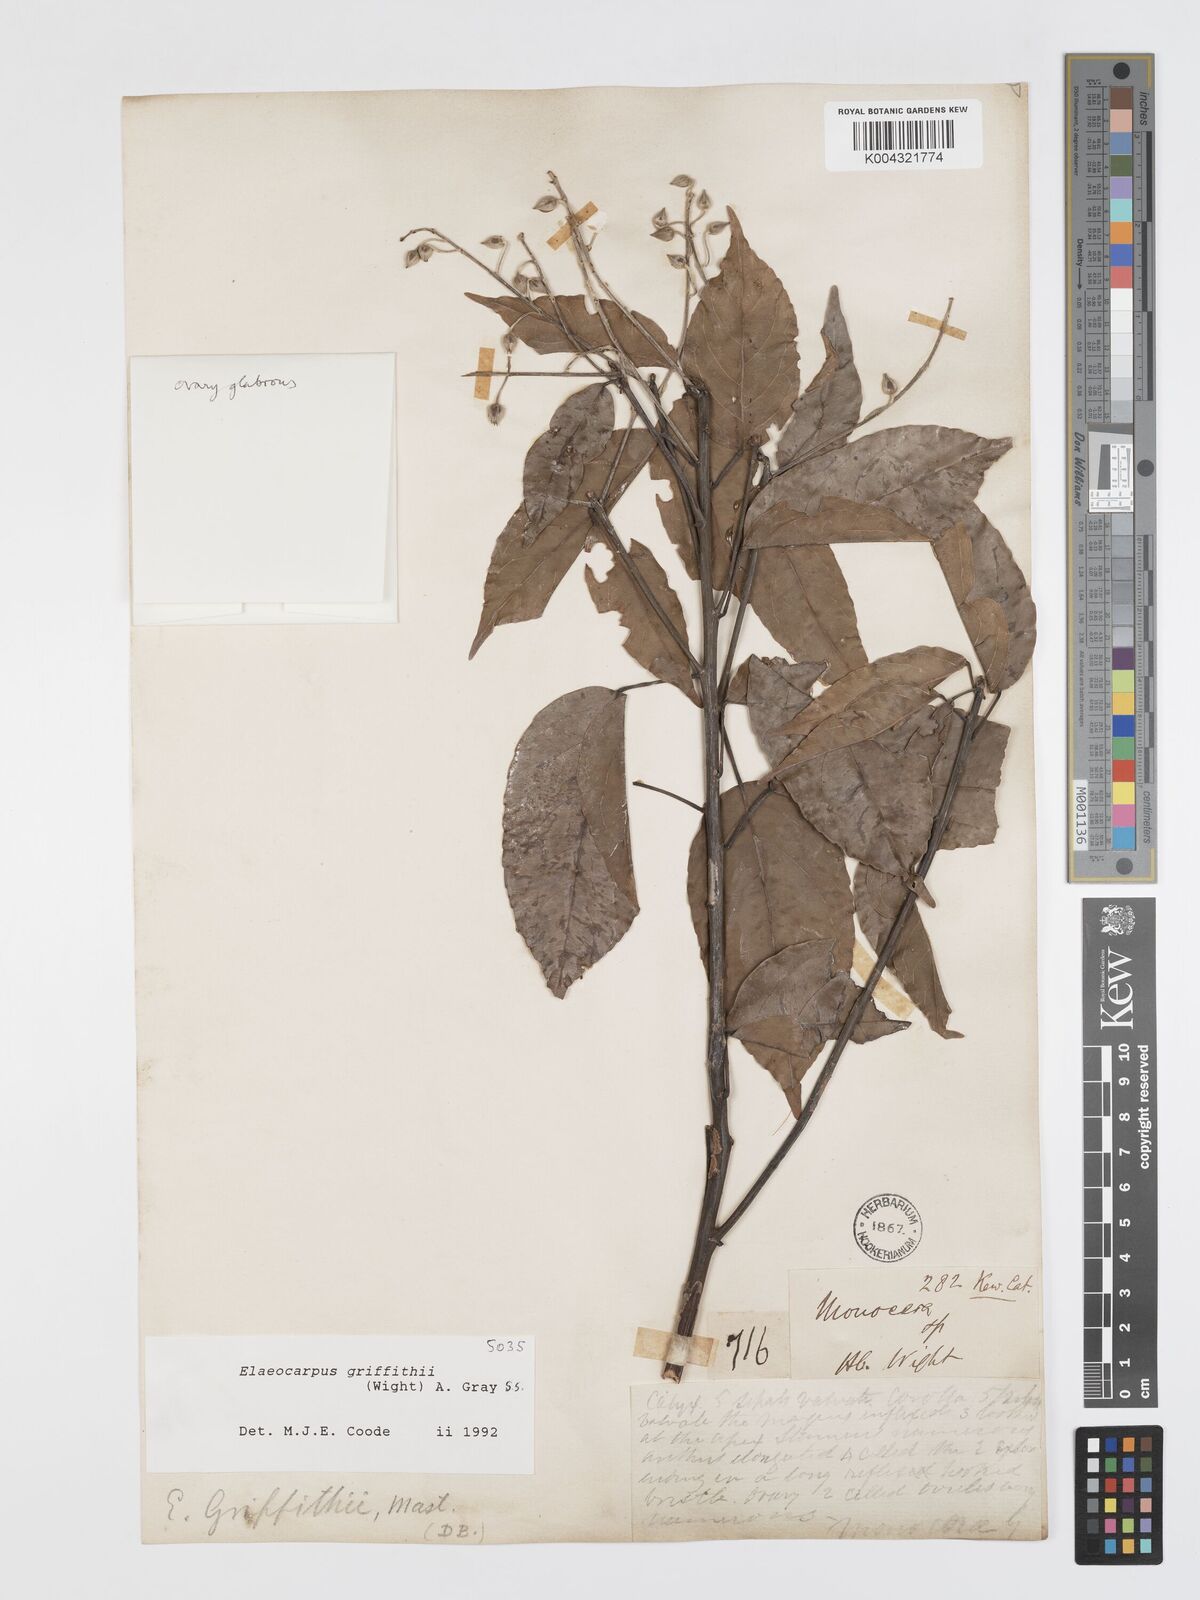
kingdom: Plantae
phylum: Tracheophyta
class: Magnoliopsida
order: Oxalidales
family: Elaeocarpaceae
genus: Elaeocarpus
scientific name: Elaeocarpus griffithii
